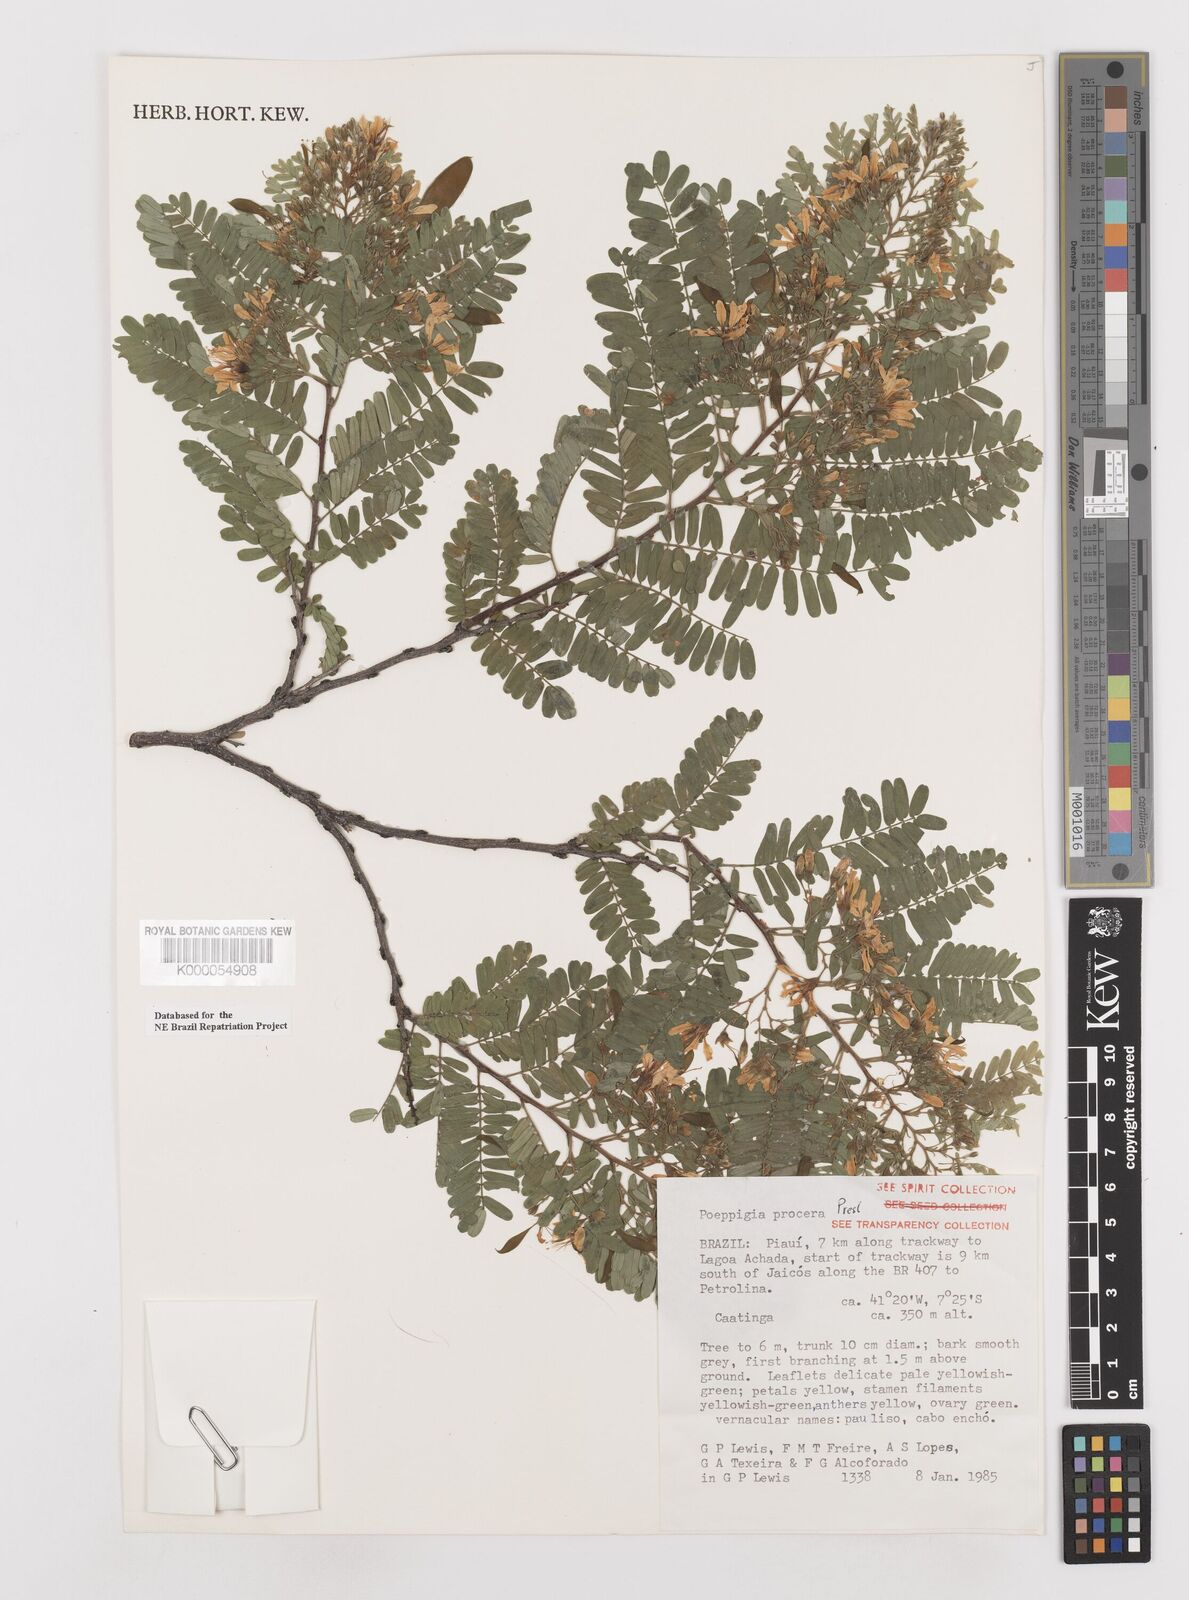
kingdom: Plantae
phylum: Tracheophyta
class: Magnoliopsida
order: Fabales
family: Fabaceae
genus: Poeppigia
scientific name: Poeppigia procera
